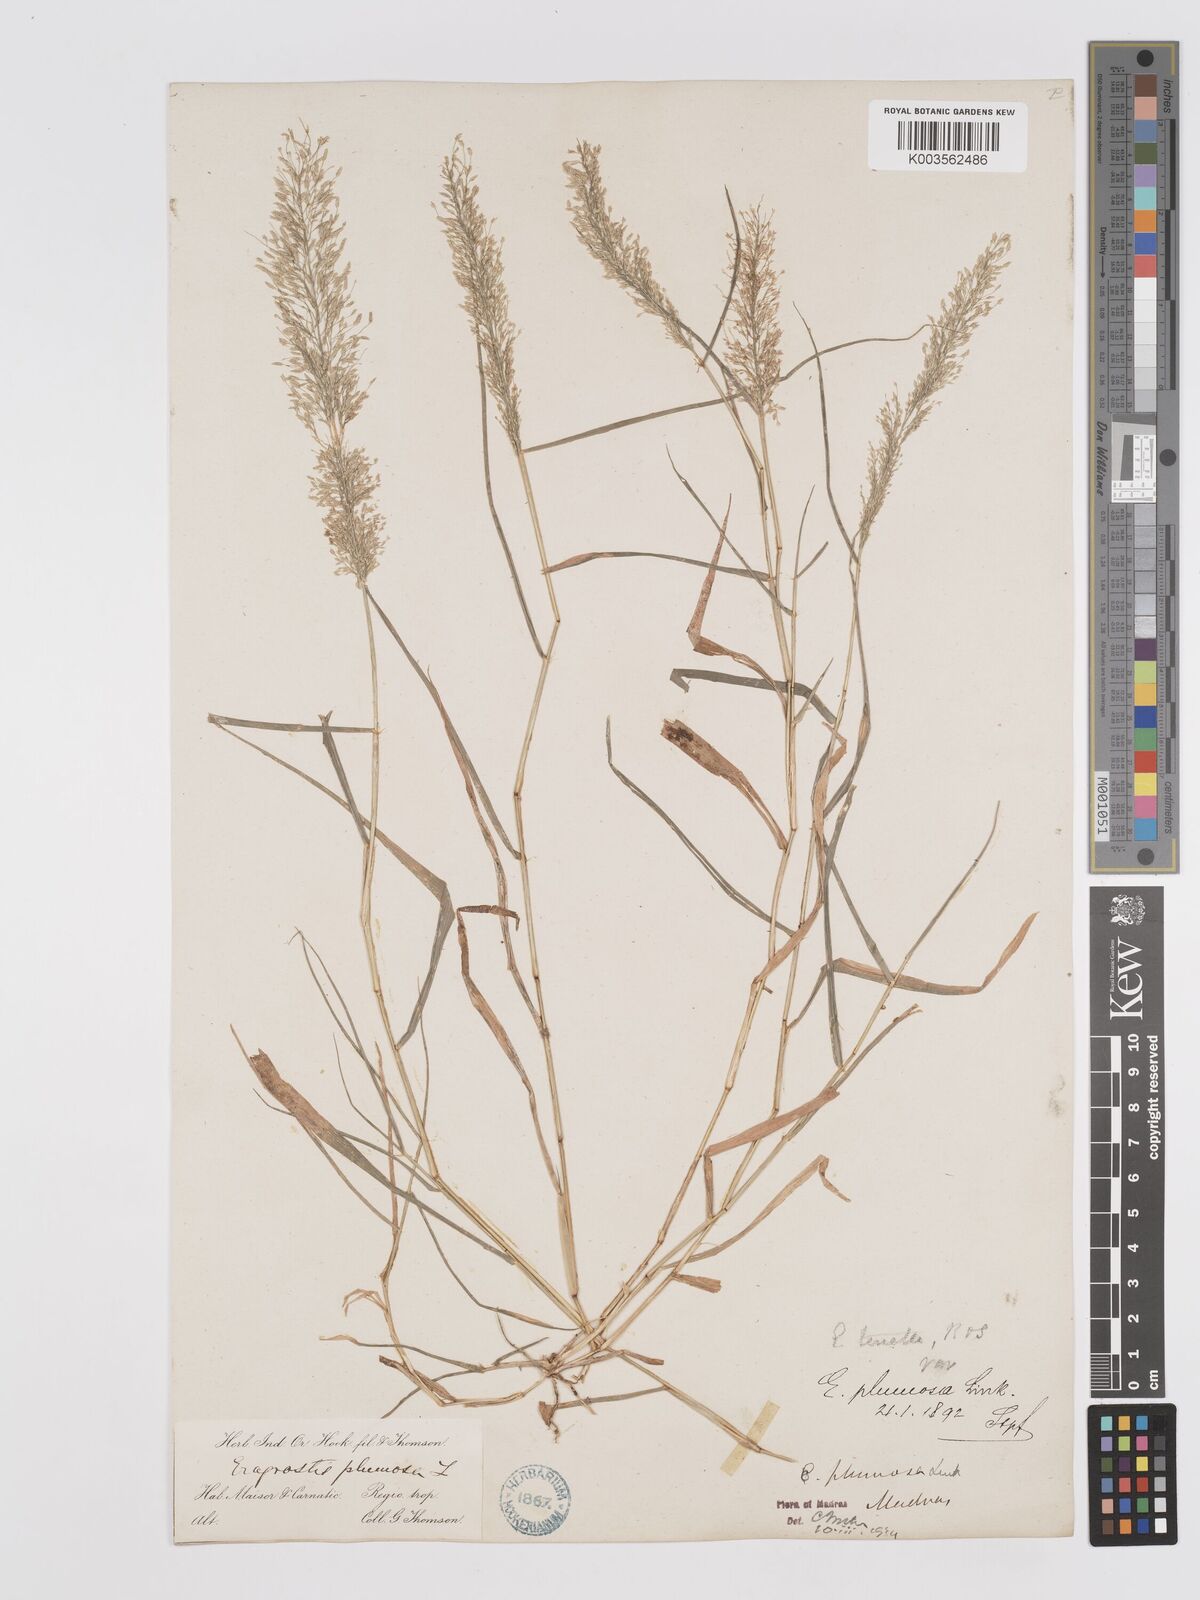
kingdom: Plantae
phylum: Tracheophyta
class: Liliopsida
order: Poales
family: Poaceae
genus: Eragrostis
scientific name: Eragrostis tenella
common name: Japanese lovegrass
